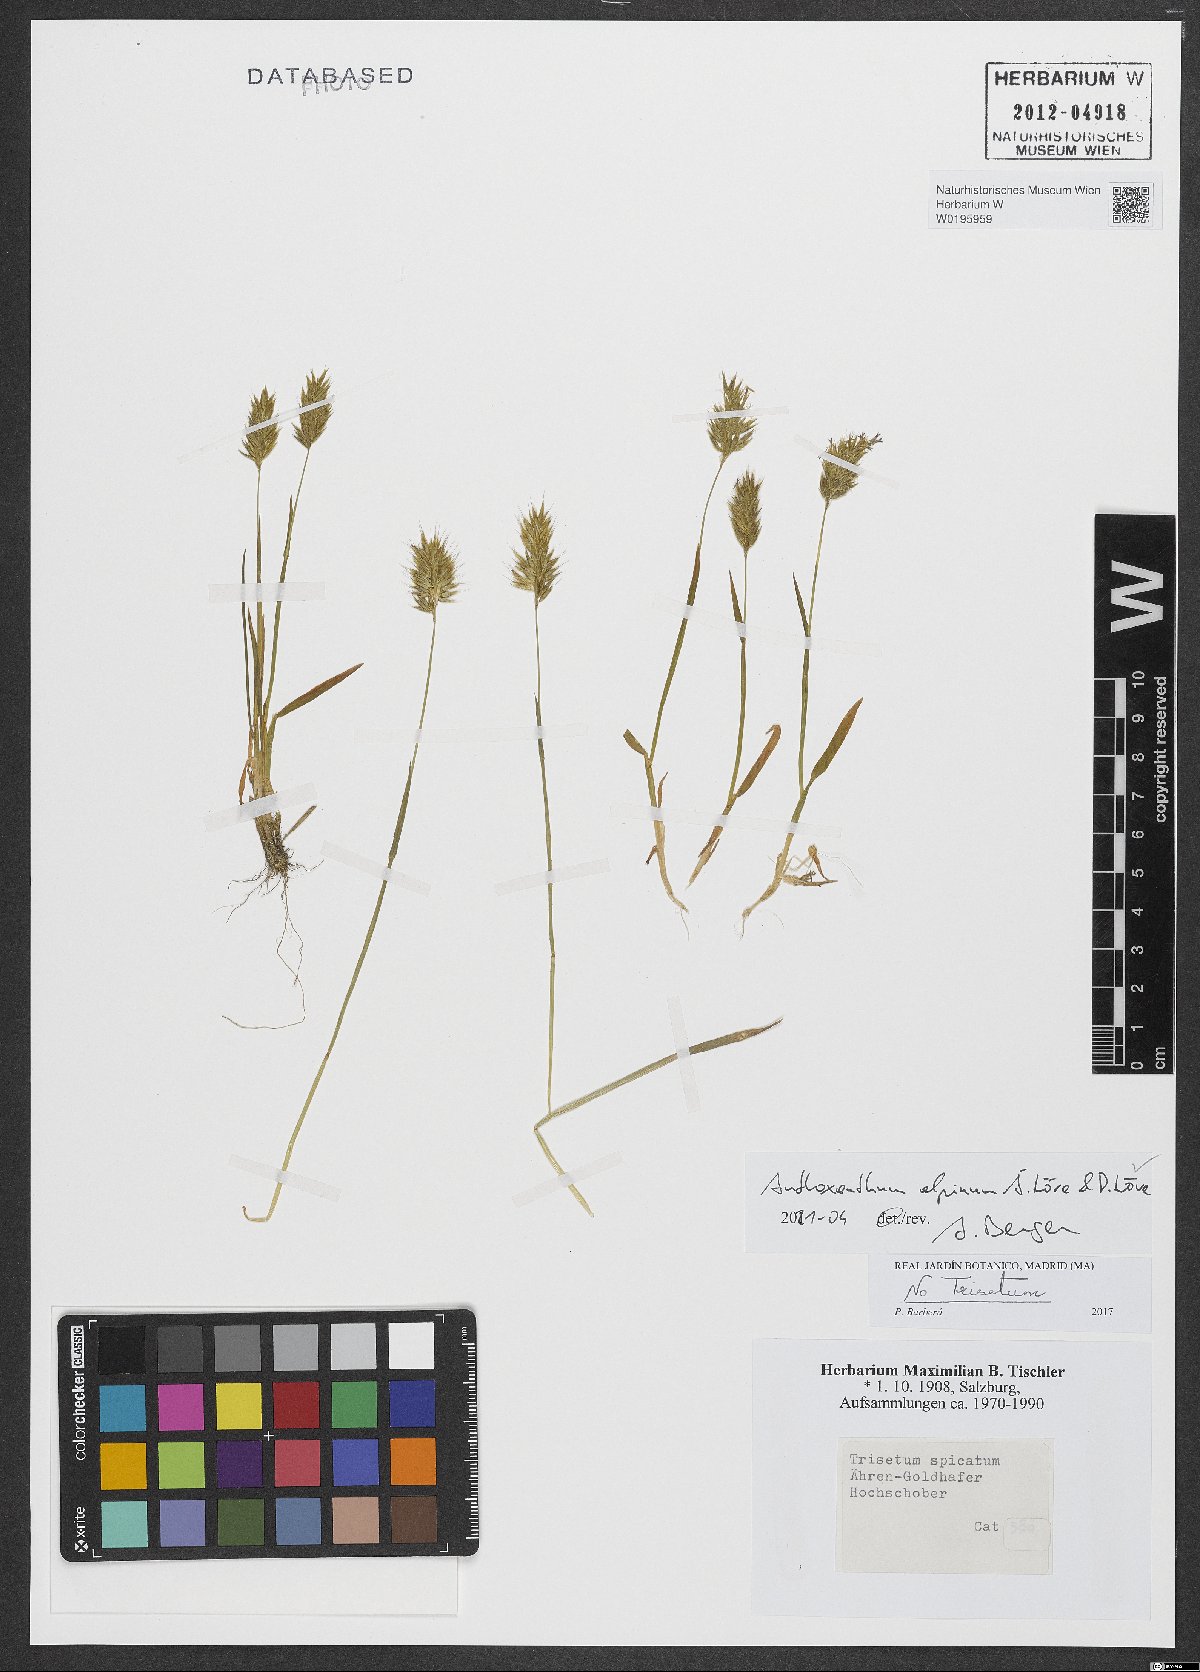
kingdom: Plantae
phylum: Tracheophyta
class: Liliopsida
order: Poales
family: Poaceae
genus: Anthoxanthum
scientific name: Anthoxanthum nipponicum
